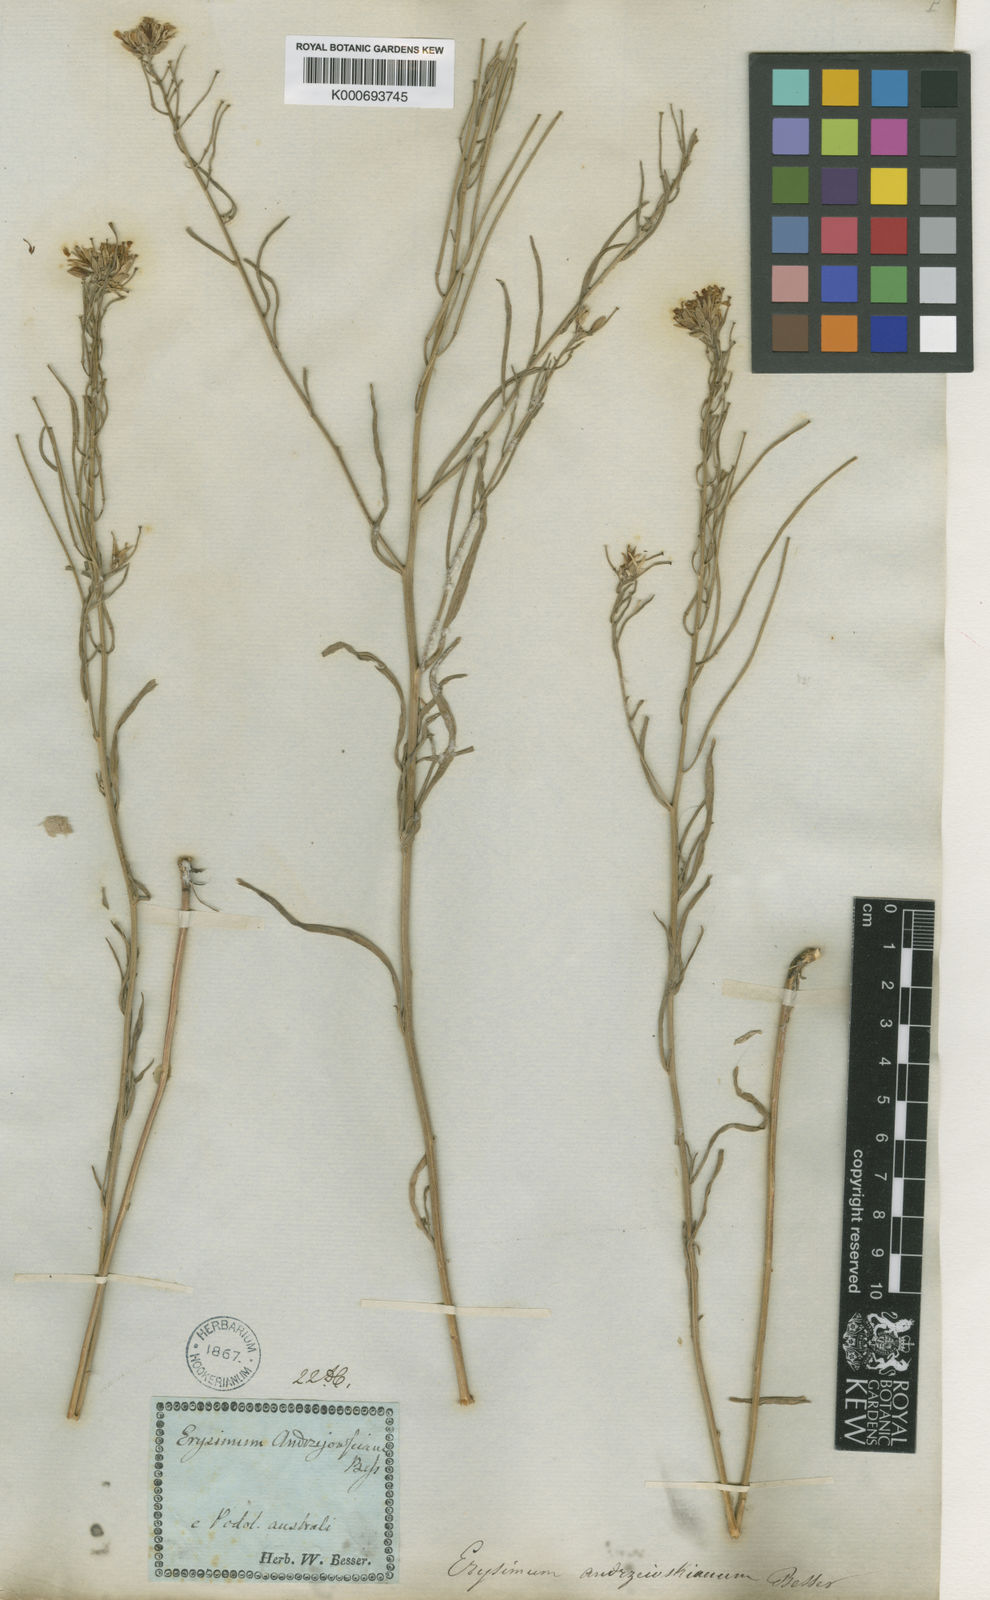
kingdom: Plantae
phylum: Tracheophyta
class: Magnoliopsida
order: Brassicales
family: Brassicaceae
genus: Erysimum
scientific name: Erysimum diffusum
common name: Diffuse wallflower
